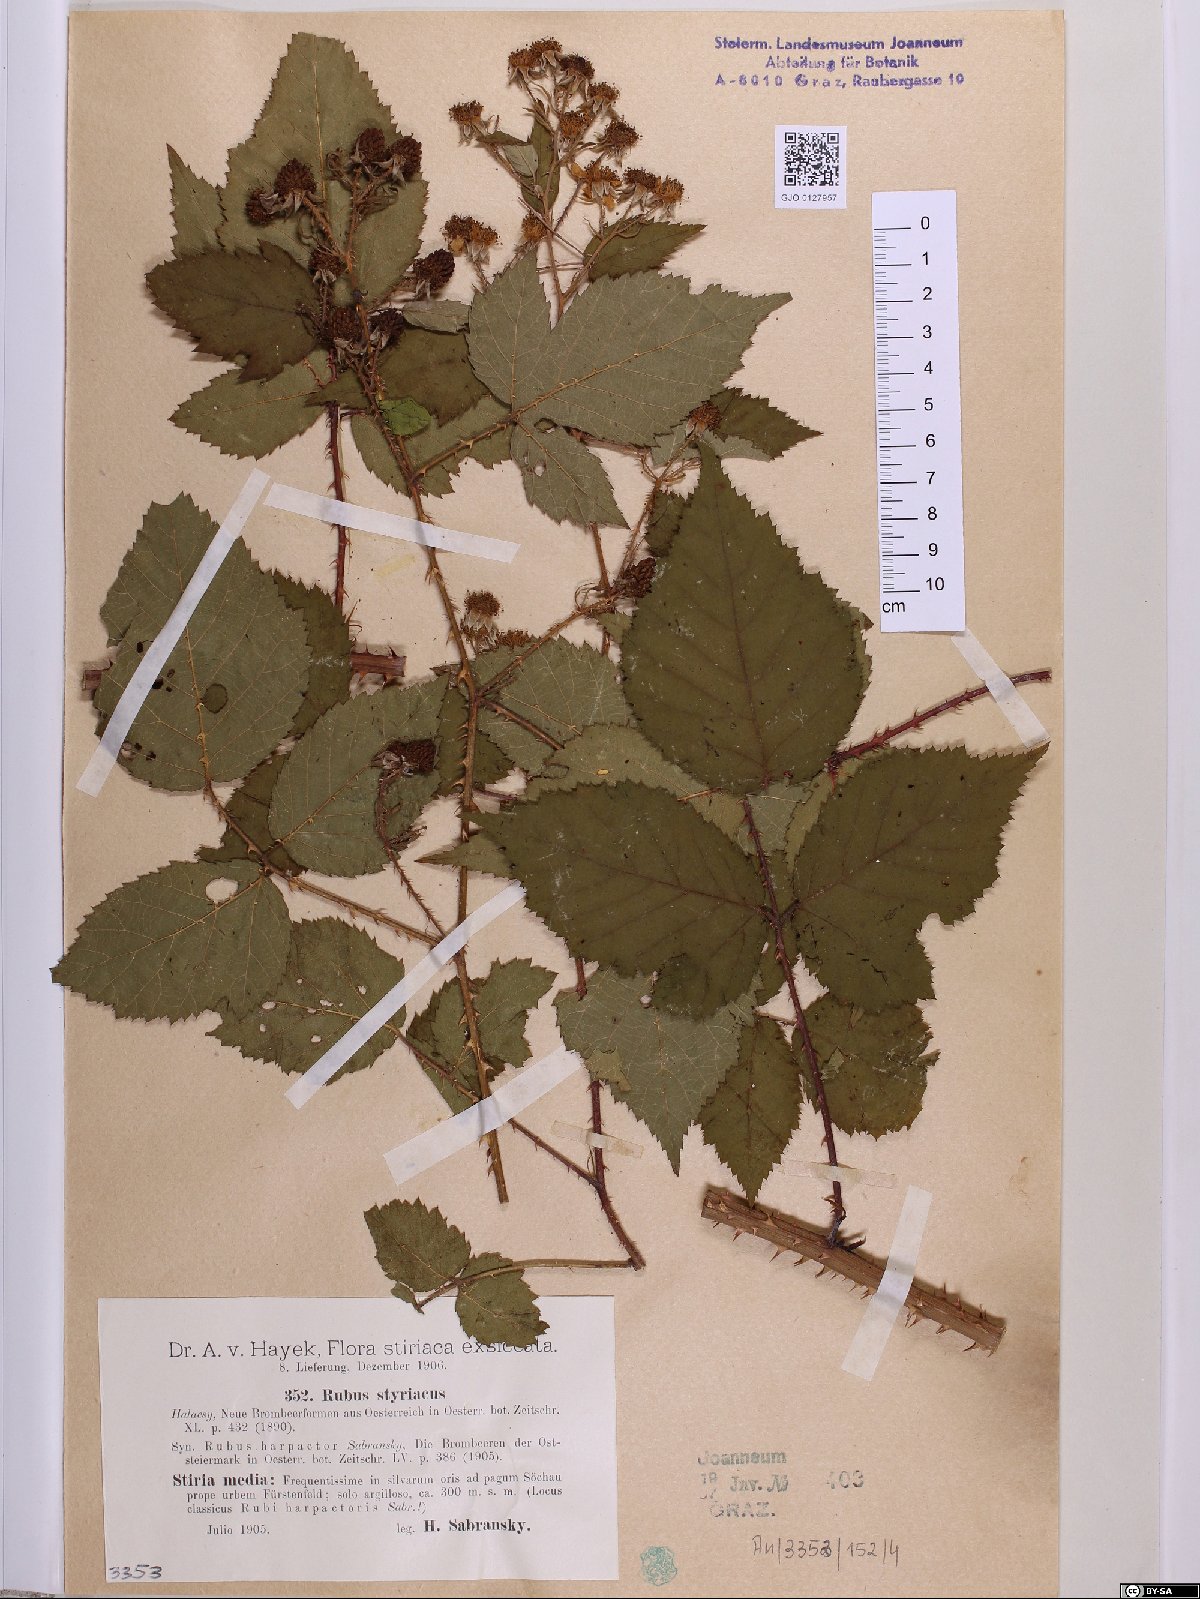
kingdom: Plantae
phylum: Tracheophyta
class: Magnoliopsida
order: Rosales
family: Rosaceae
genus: Rubus
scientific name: Rubus styriacus
